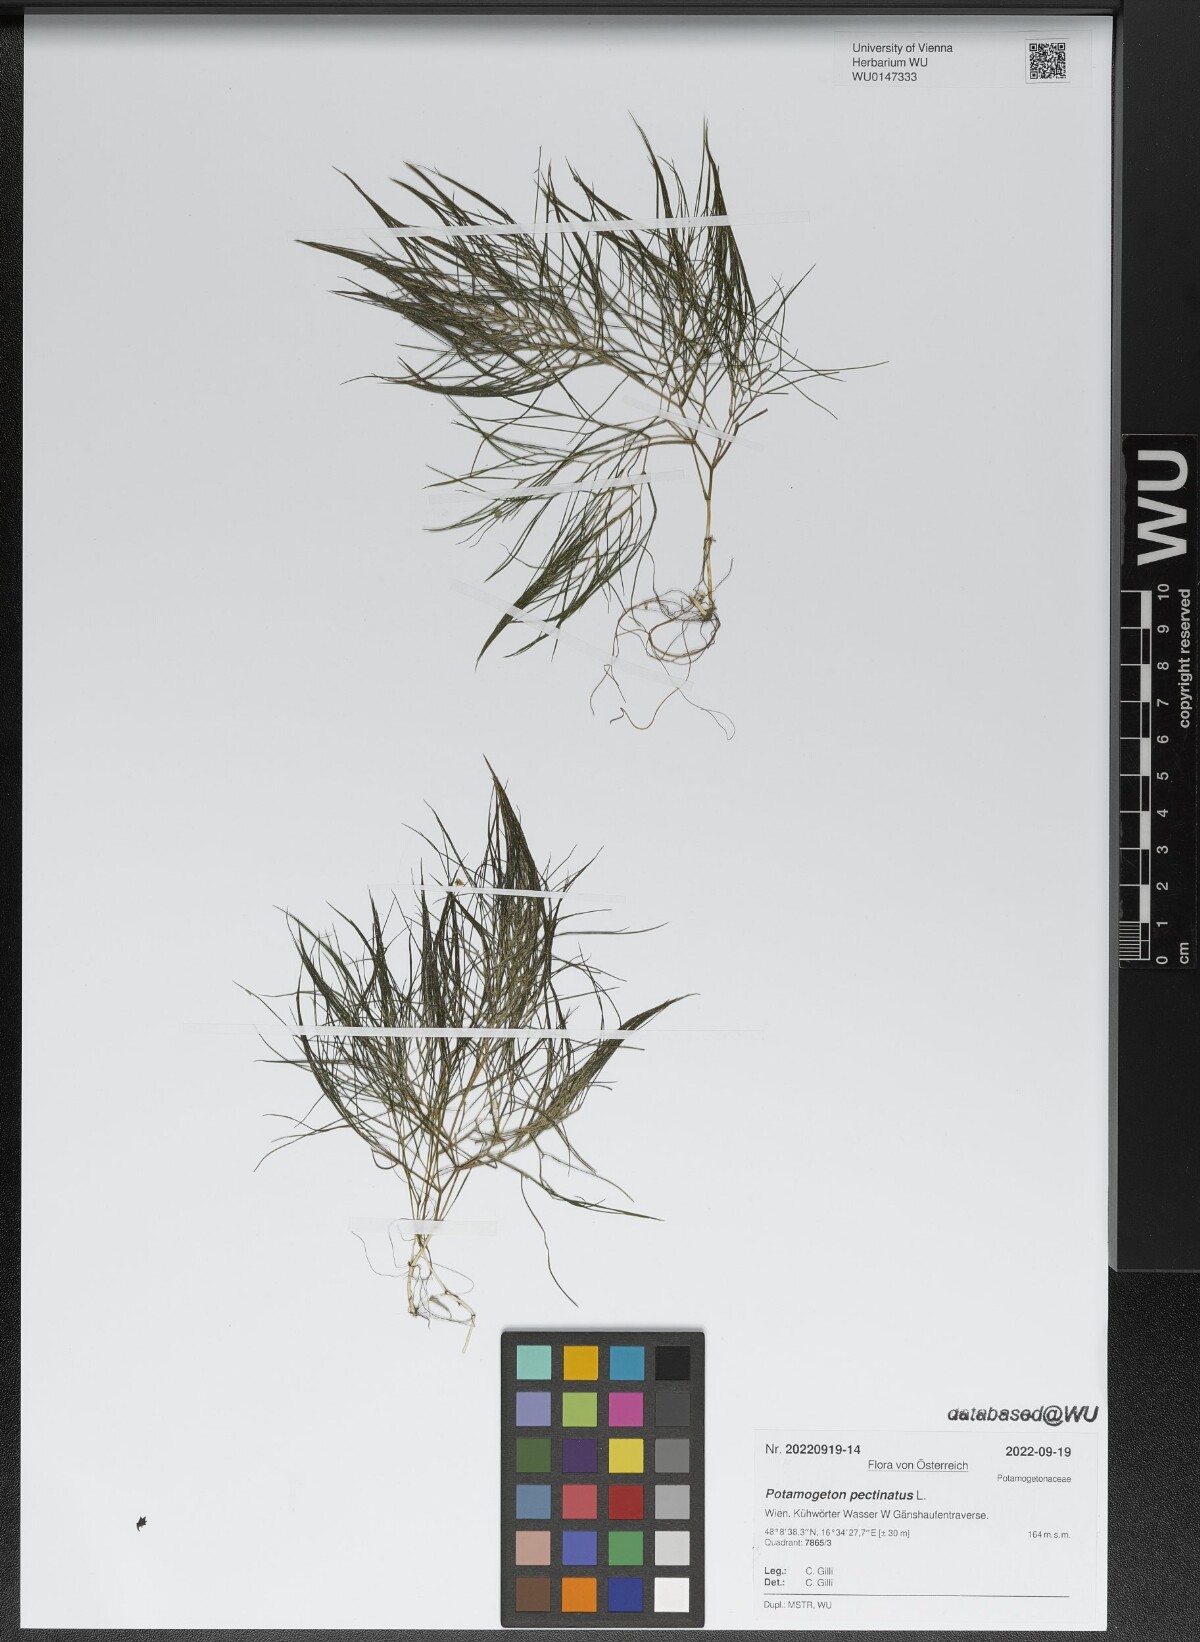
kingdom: Plantae
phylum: Tracheophyta
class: Liliopsida
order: Alismatales
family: Potamogetonaceae
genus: Stuckenia
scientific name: Stuckenia pectinata
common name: Sago pondweed
